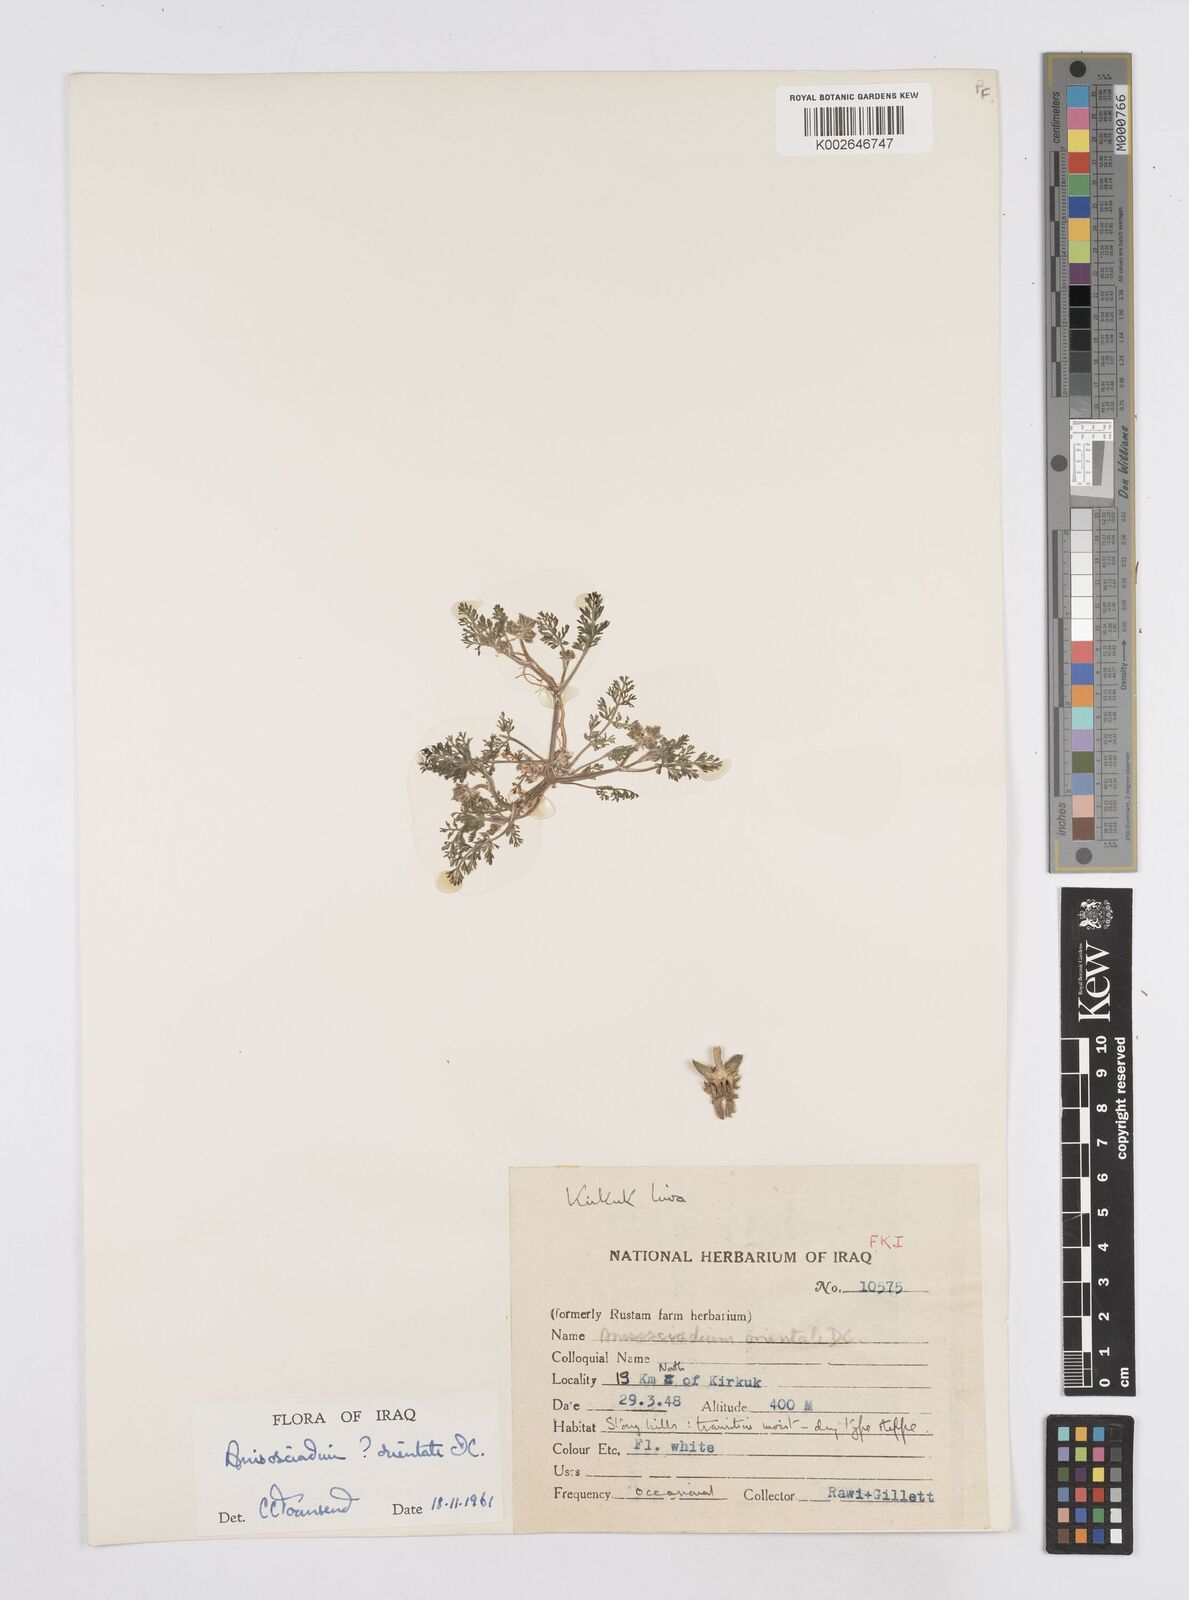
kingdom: Plantae
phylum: Tracheophyta
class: Magnoliopsida
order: Apiales
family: Apiaceae
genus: Anisosciadium
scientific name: Anisosciadium orientale
